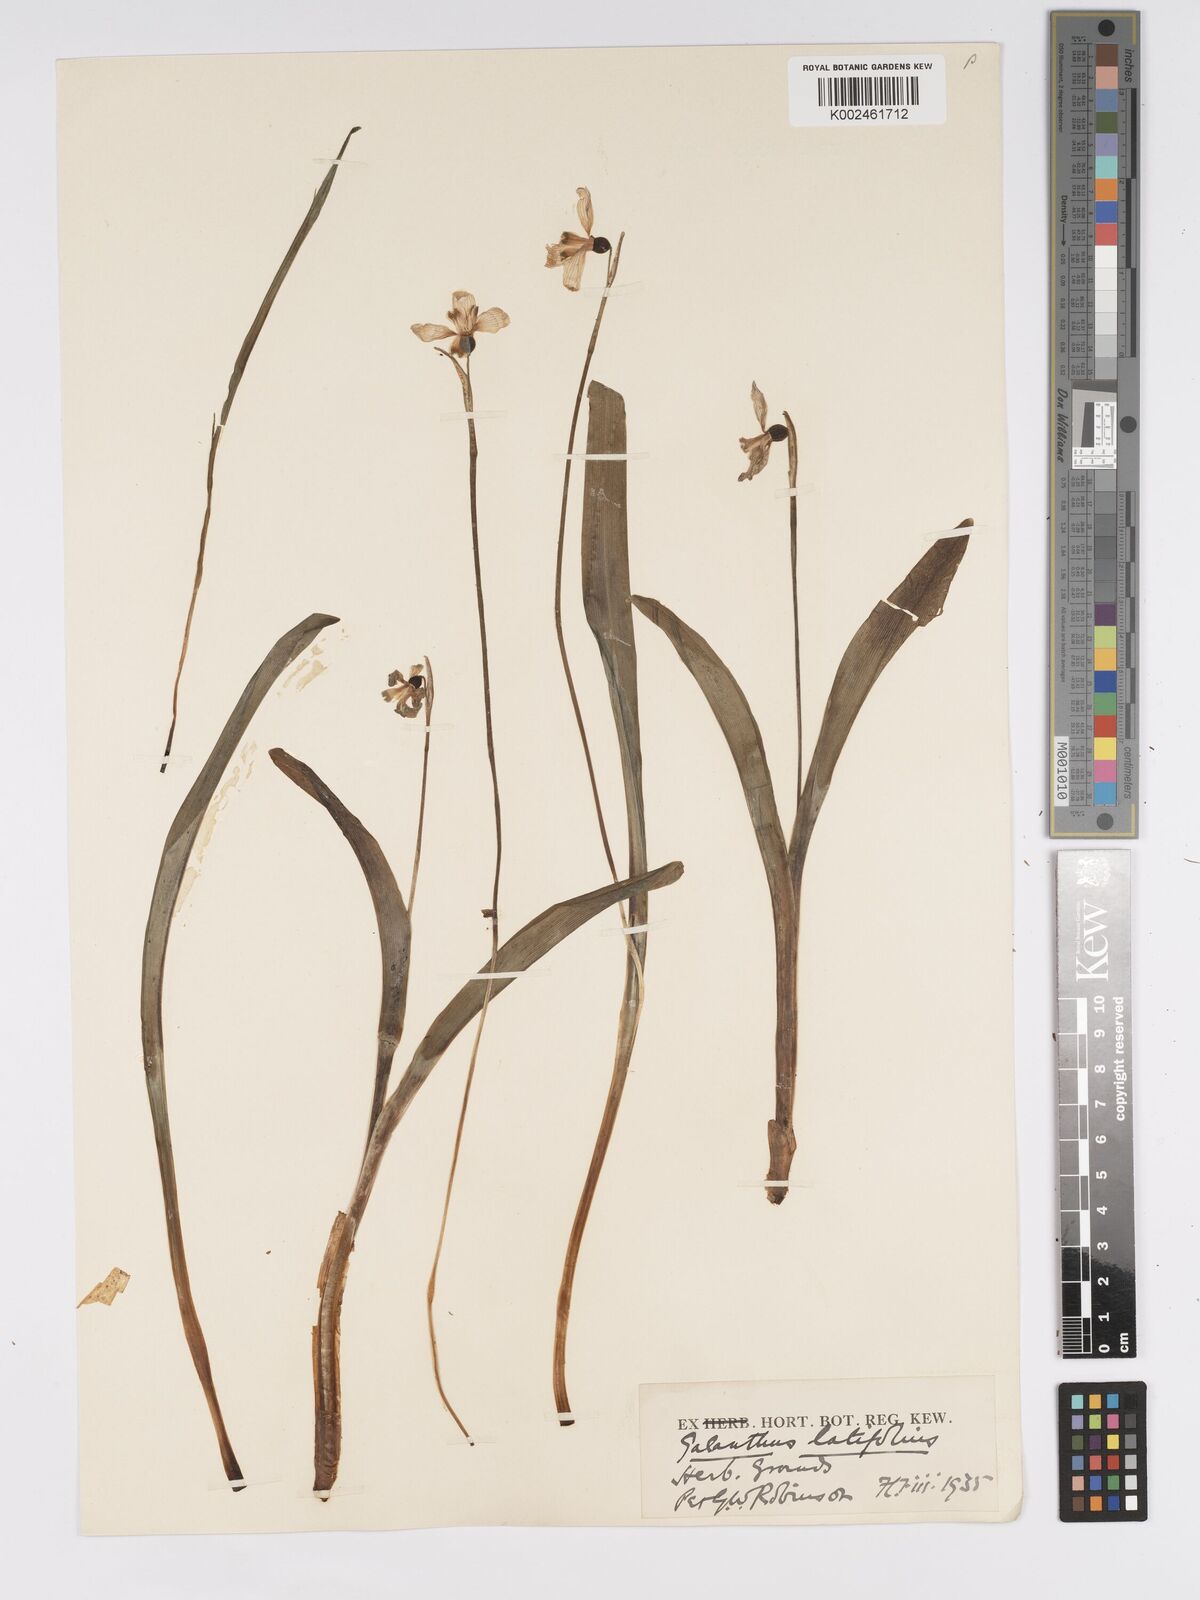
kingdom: Plantae
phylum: Tracheophyta
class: Liliopsida
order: Asparagales
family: Amaryllidaceae
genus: Galanthus
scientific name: Galanthus platyphyllus
